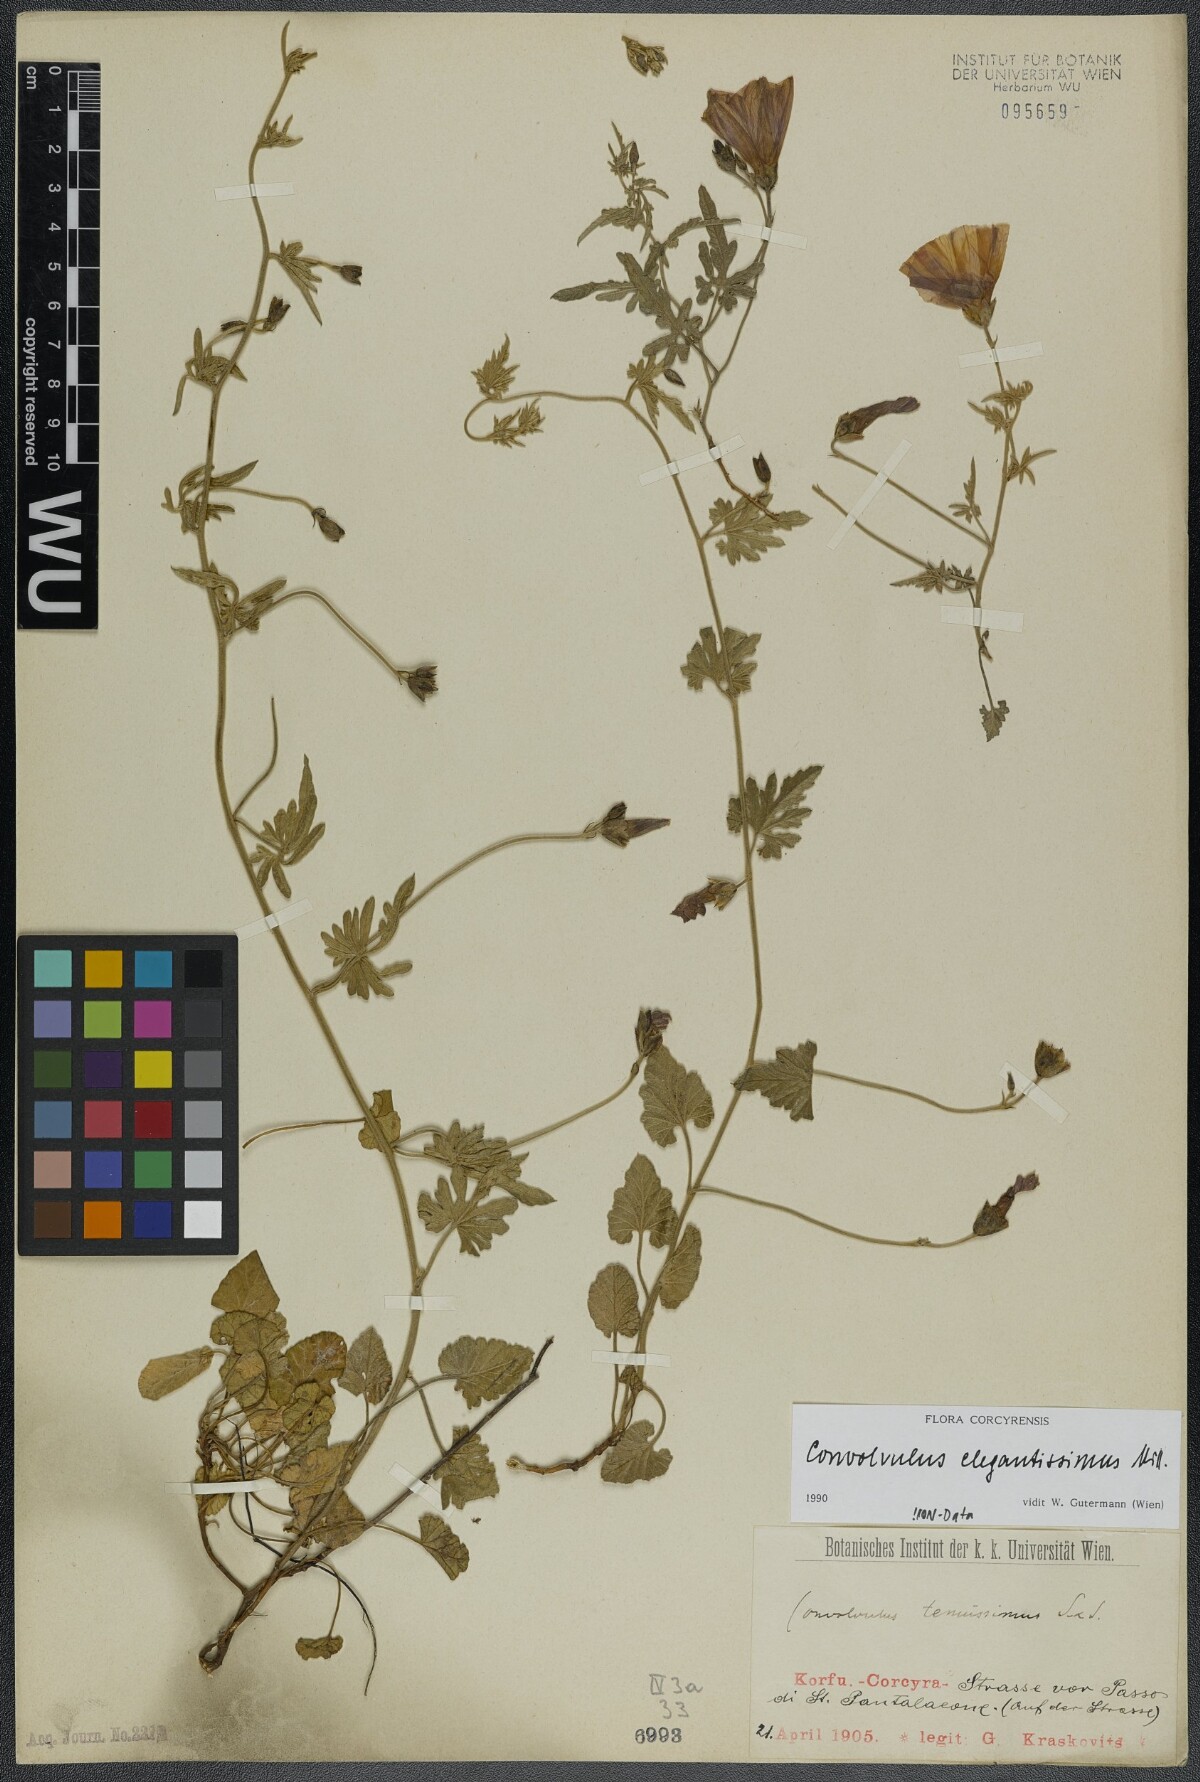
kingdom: Plantae
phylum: Tracheophyta
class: Magnoliopsida
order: Solanales
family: Convolvulaceae
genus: Convolvulus
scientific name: Convolvulus elegantissimus
